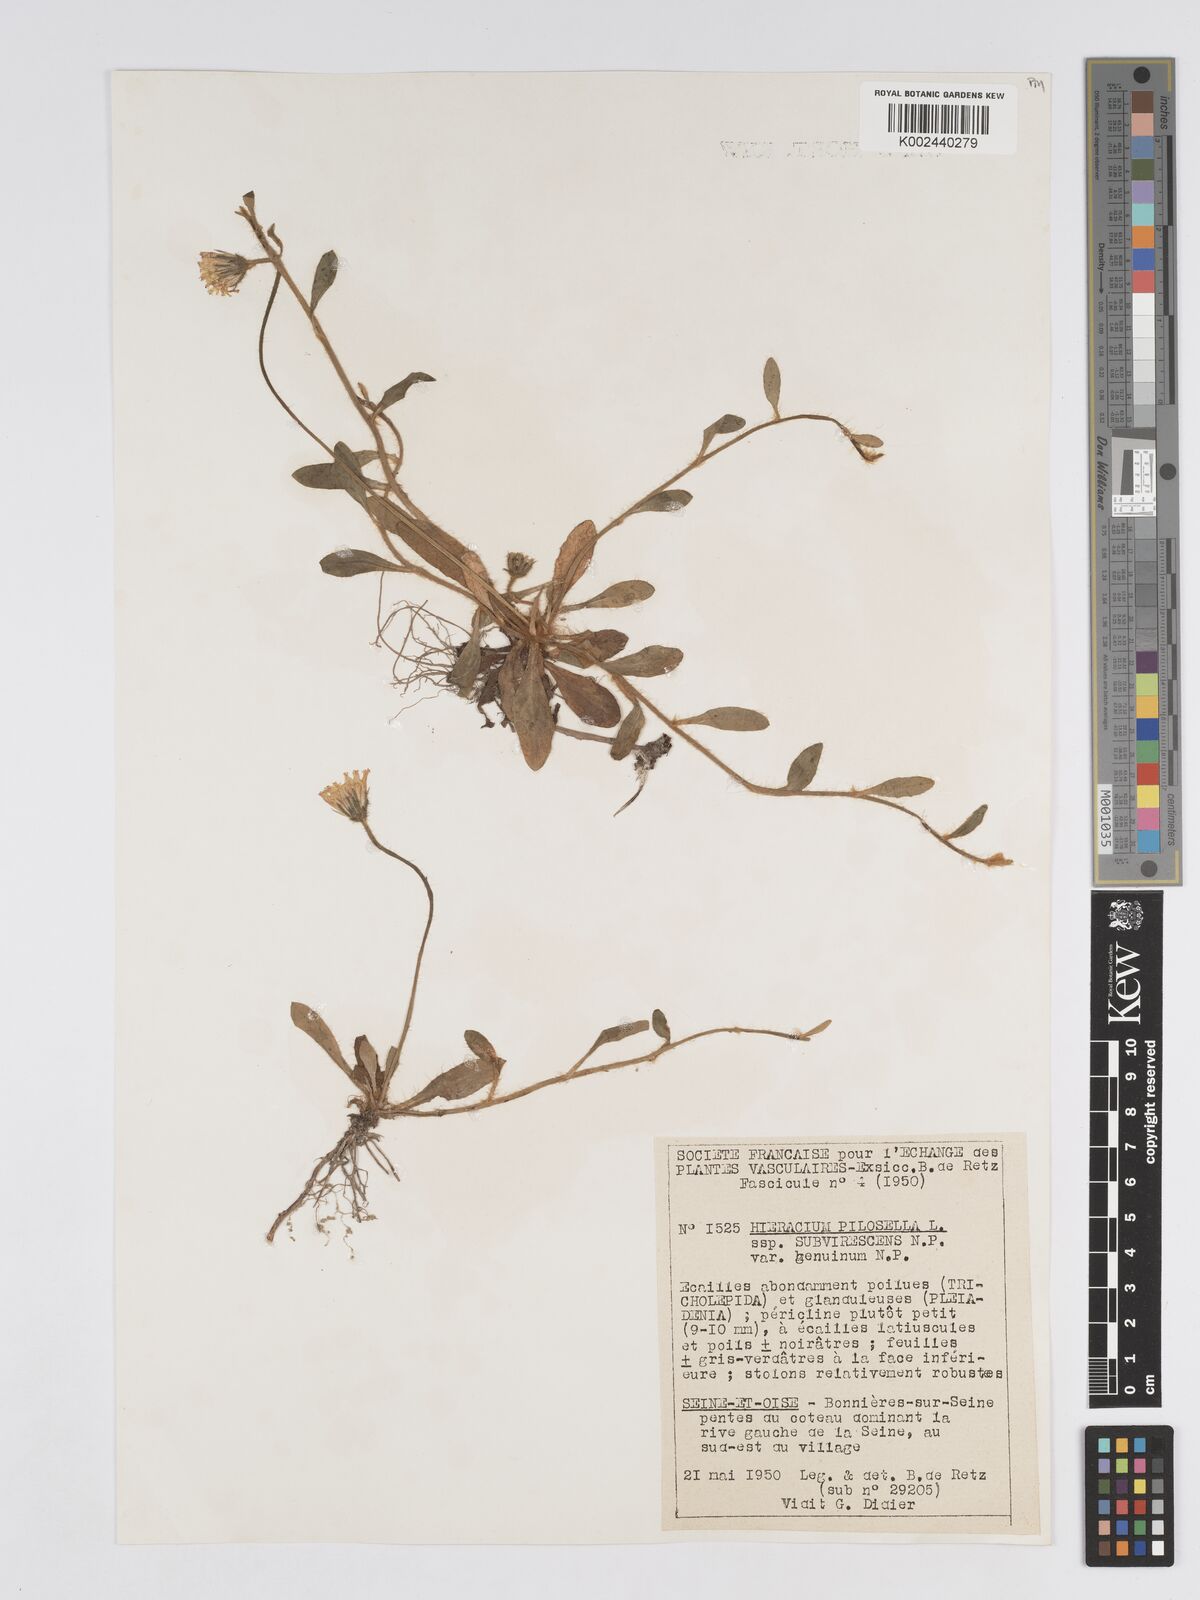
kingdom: Plantae
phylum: Tracheophyta
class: Magnoliopsida
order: Asterales
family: Asteraceae
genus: Pilosella
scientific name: Pilosella officinarum
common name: Mouse-ear hawkweed
